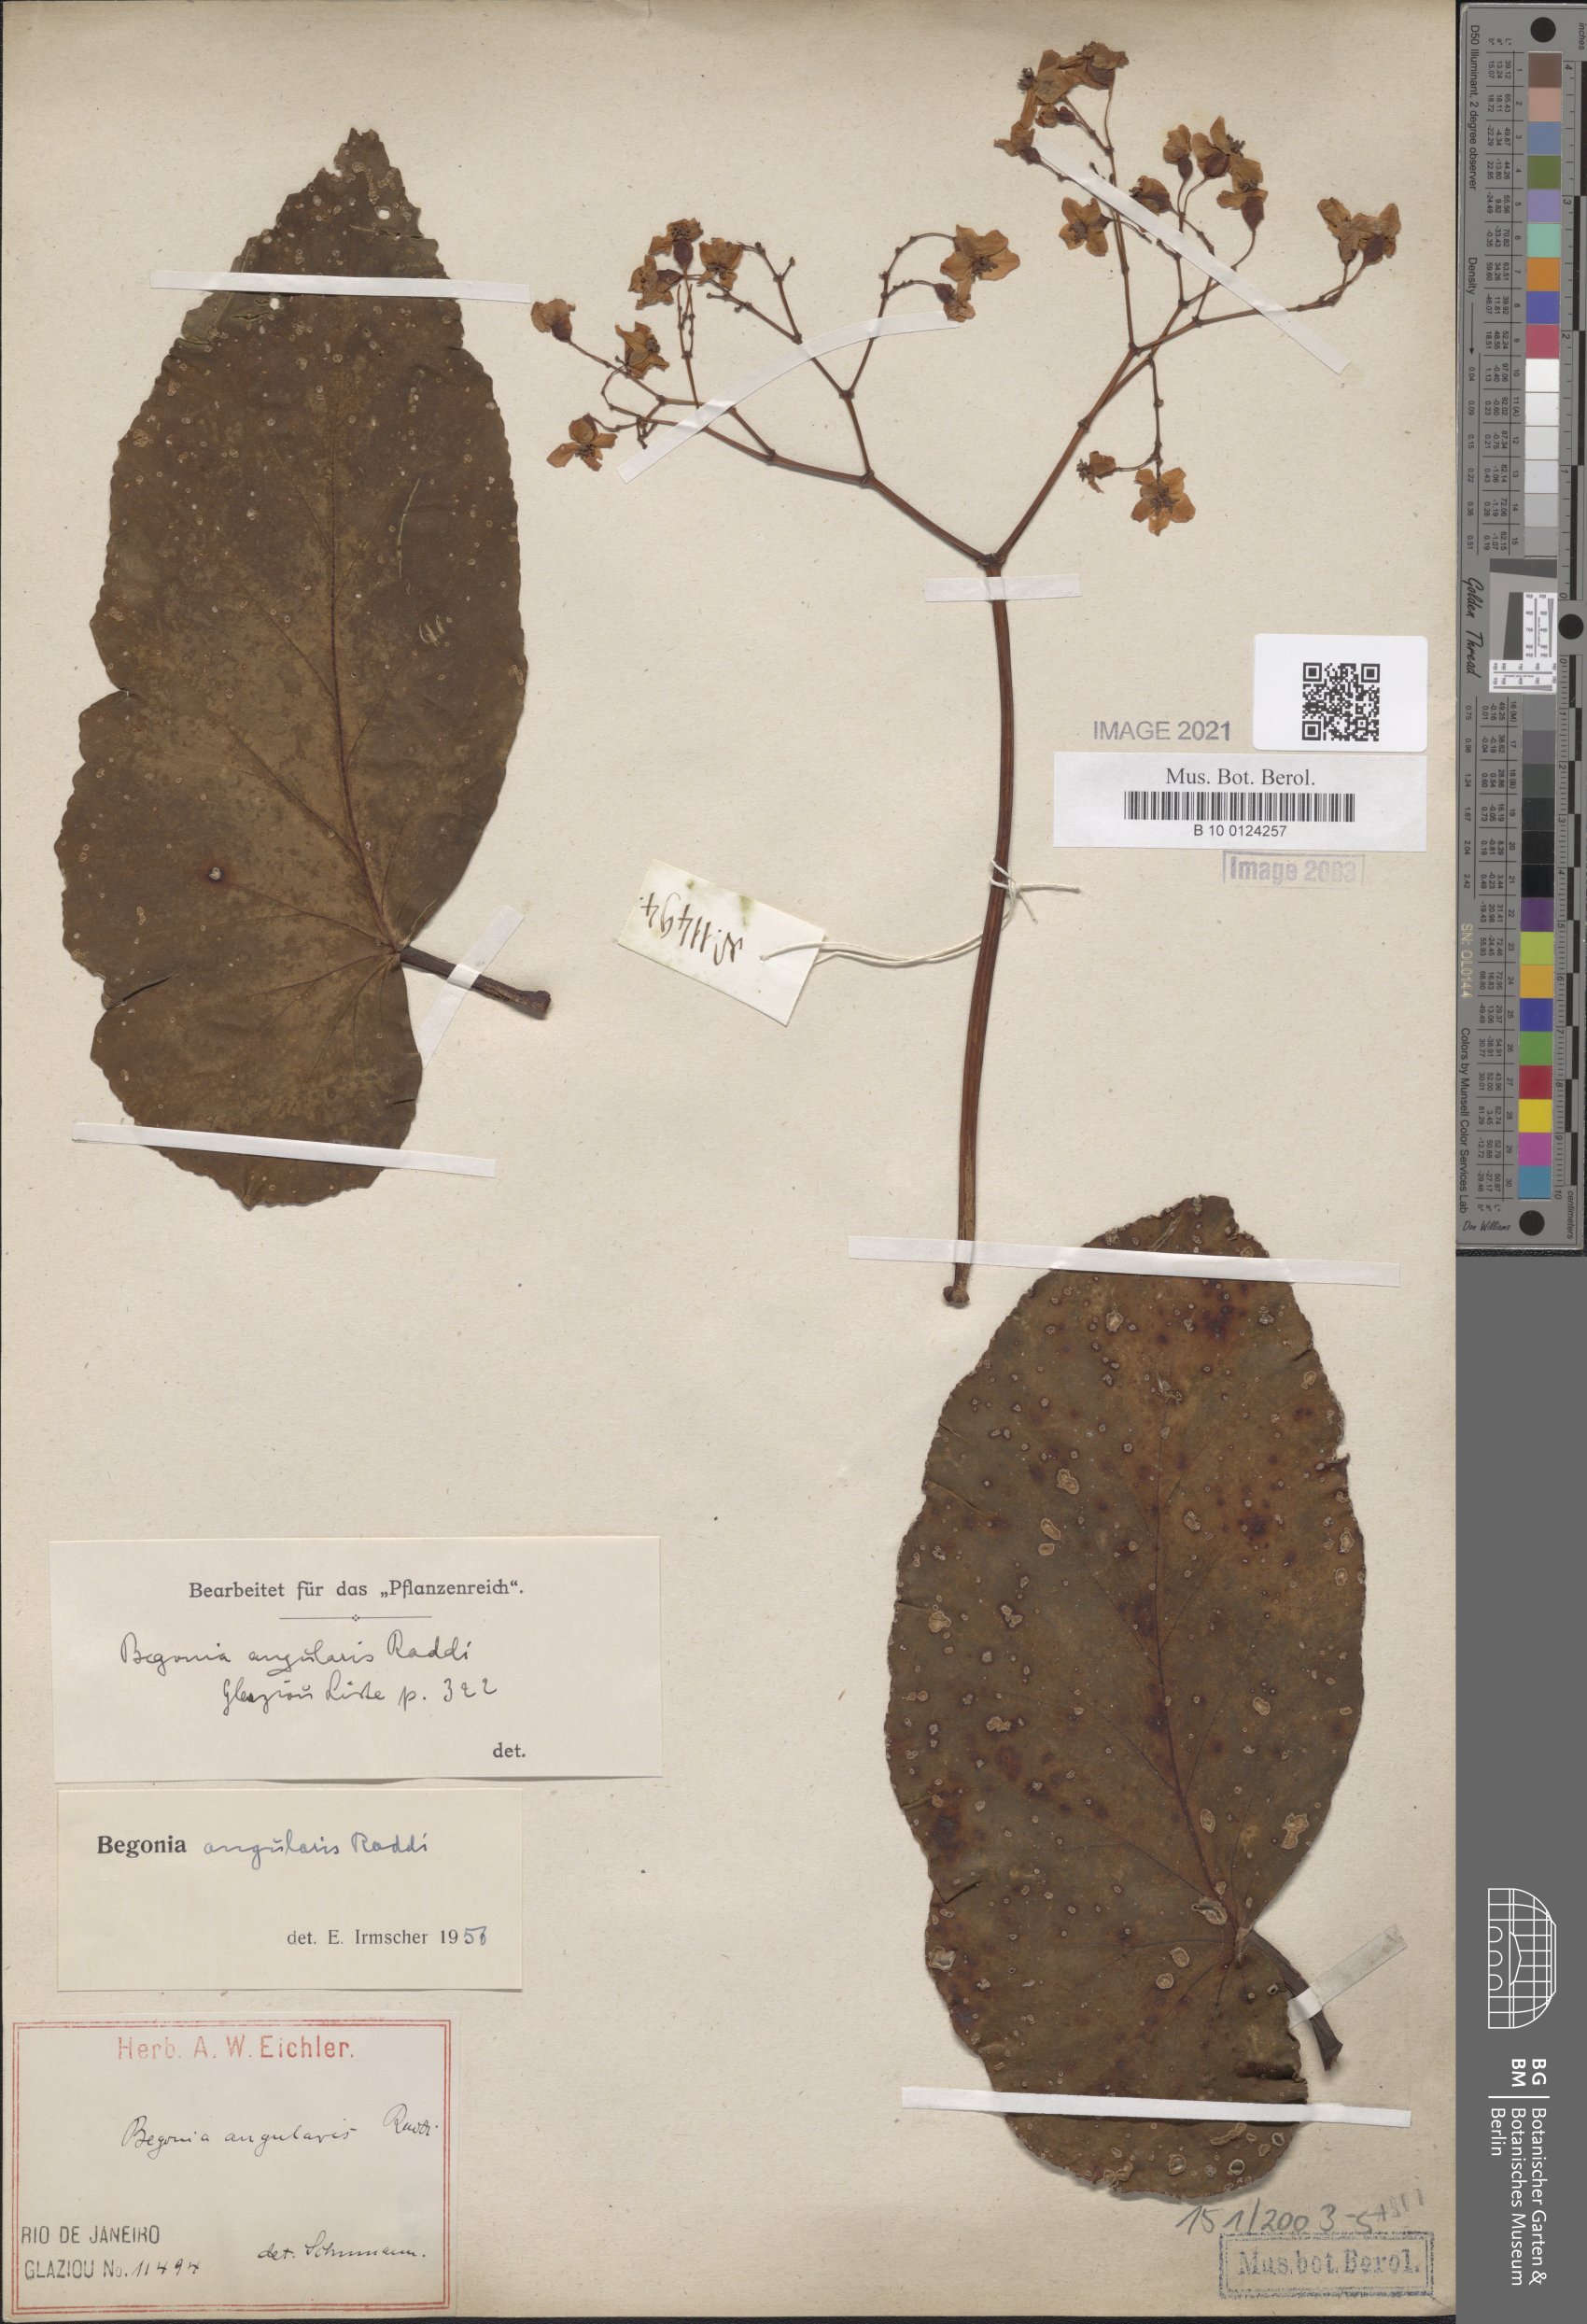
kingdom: Plantae
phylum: Tracheophyta
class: Magnoliopsida
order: Cucurbitales
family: Begoniaceae
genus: Begonia
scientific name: Begonia angularis
